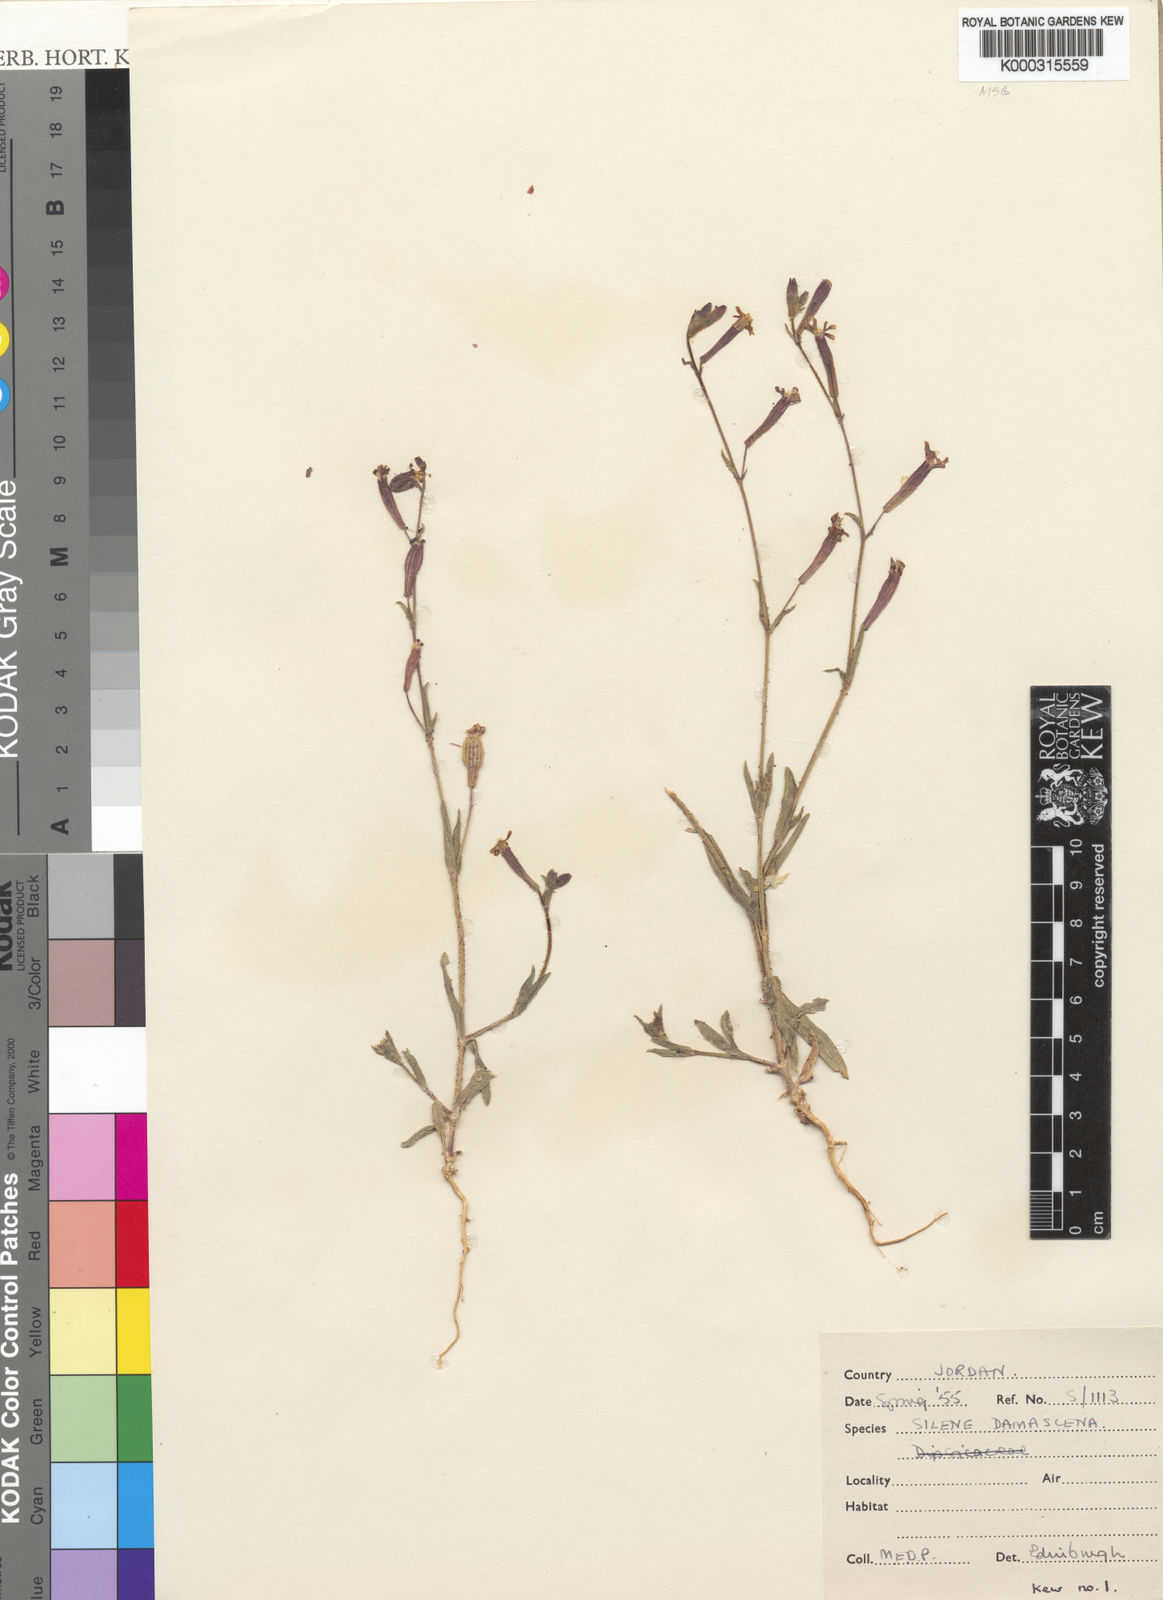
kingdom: Plantae
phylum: Tracheophyta
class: Magnoliopsida
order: Caryophyllales
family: Caryophyllaceae
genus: Silene
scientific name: Silene damascena
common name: Damascus catchfly
